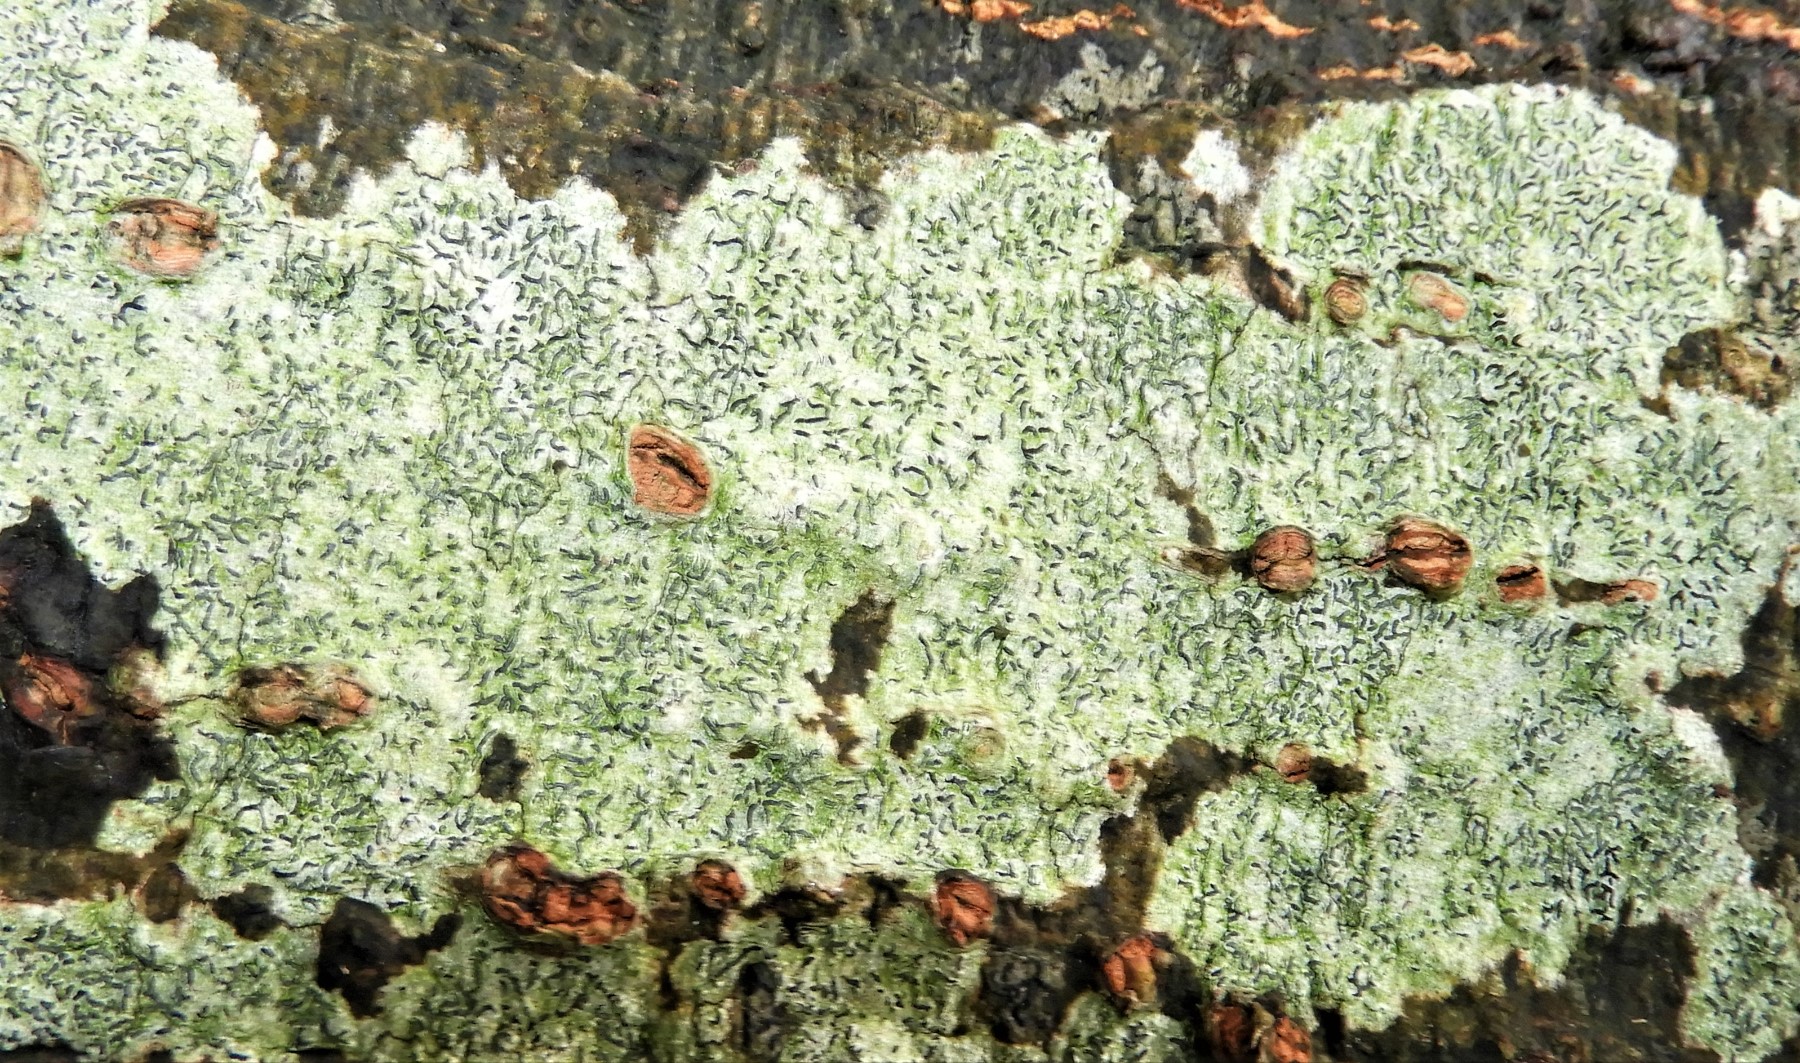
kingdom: Fungi
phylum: Ascomycota
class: Lecanoromycetes
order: Ostropales
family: Graphidaceae
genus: Graphis
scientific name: Graphis scripta
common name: almindelig skriftlav
